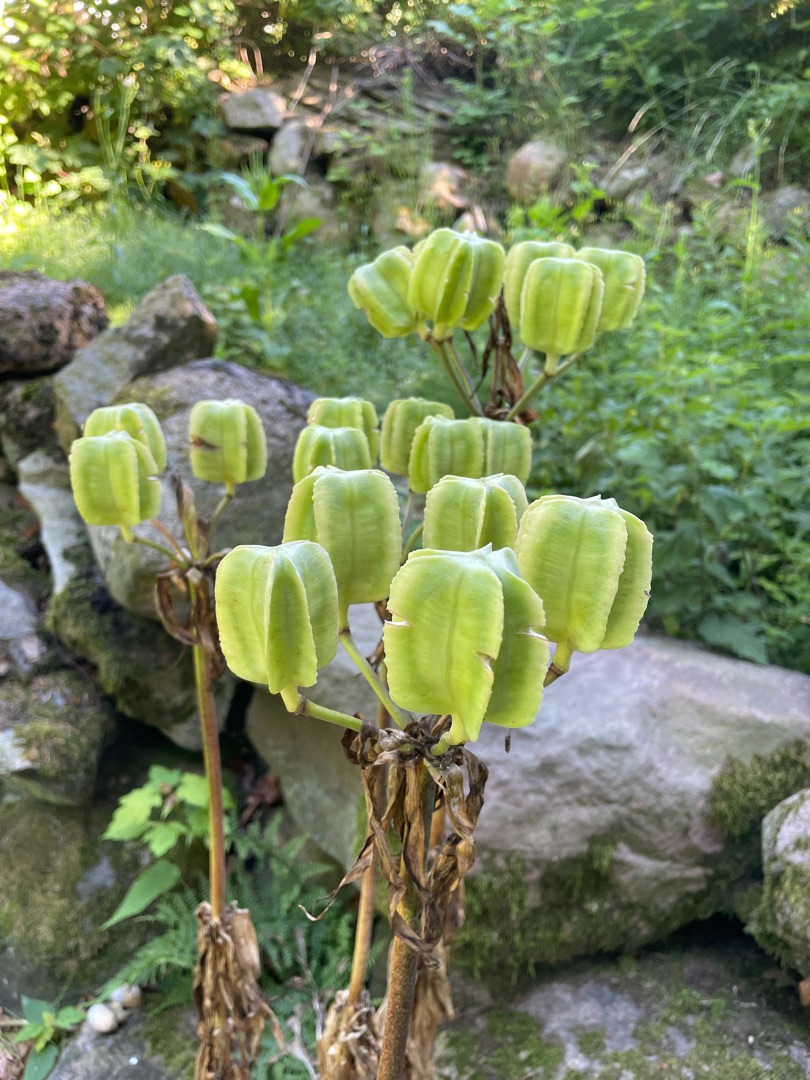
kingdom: Plantae
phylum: Tracheophyta
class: Liliopsida
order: Liliales
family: Liliaceae
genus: Fritillaria
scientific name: Fritillaria imperialis
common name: Kejserkrone
